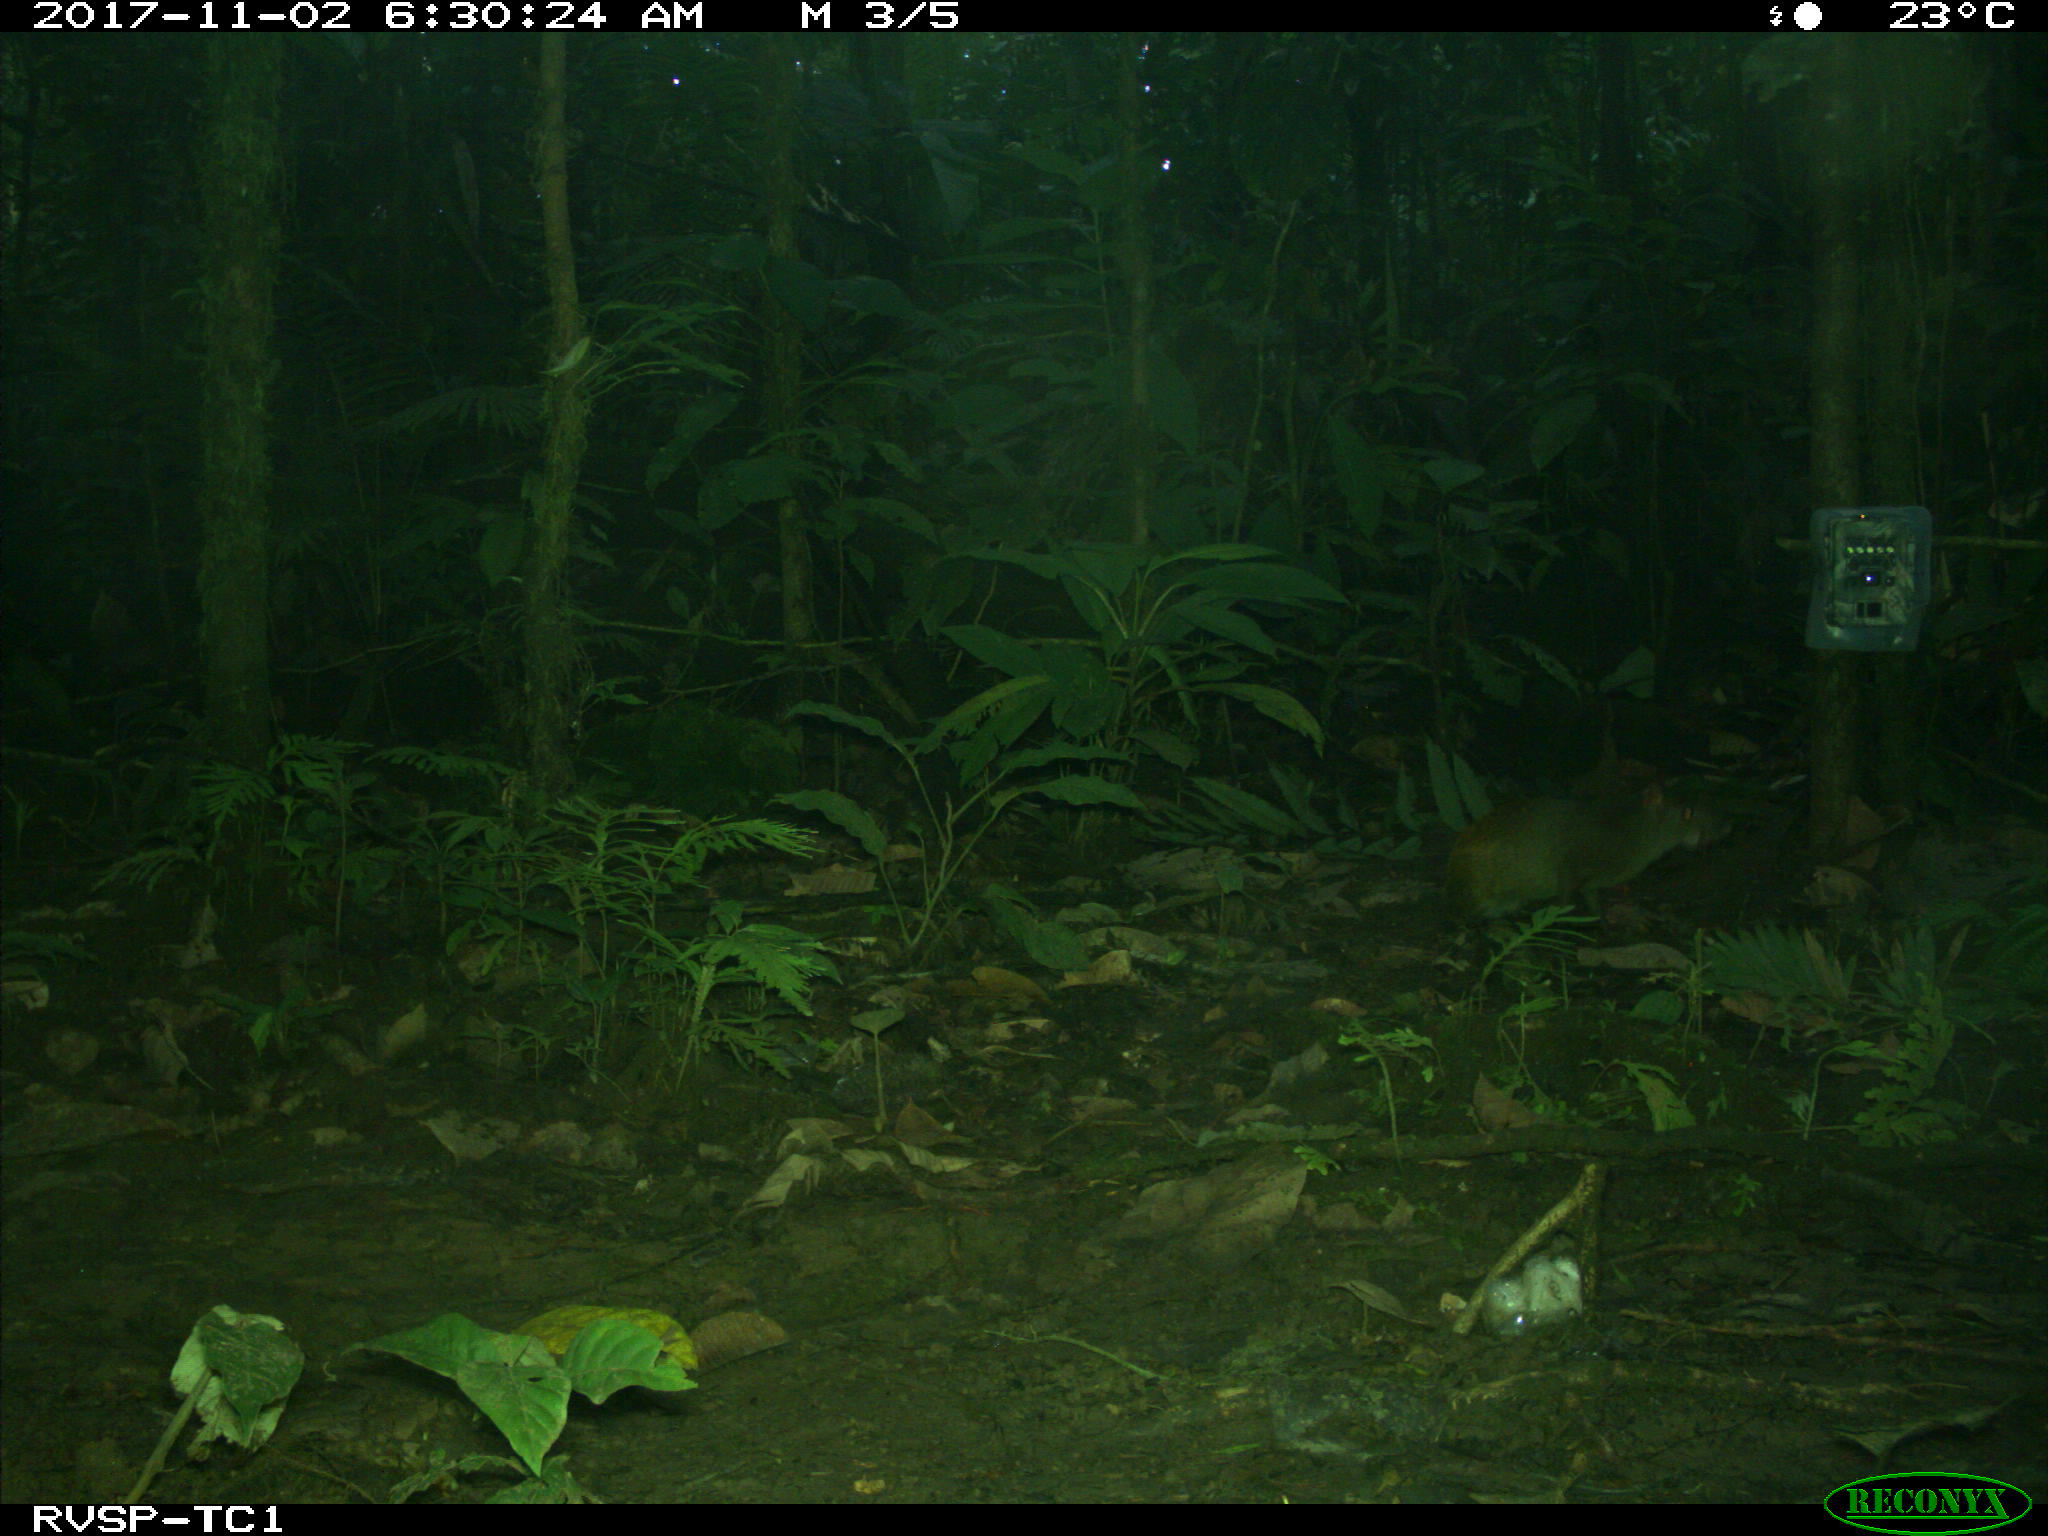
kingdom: Animalia
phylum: Chordata
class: Mammalia
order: Rodentia
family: Dasyproctidae
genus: Dasyprocta
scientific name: Dasyprocta punctata
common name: Central american agouti
